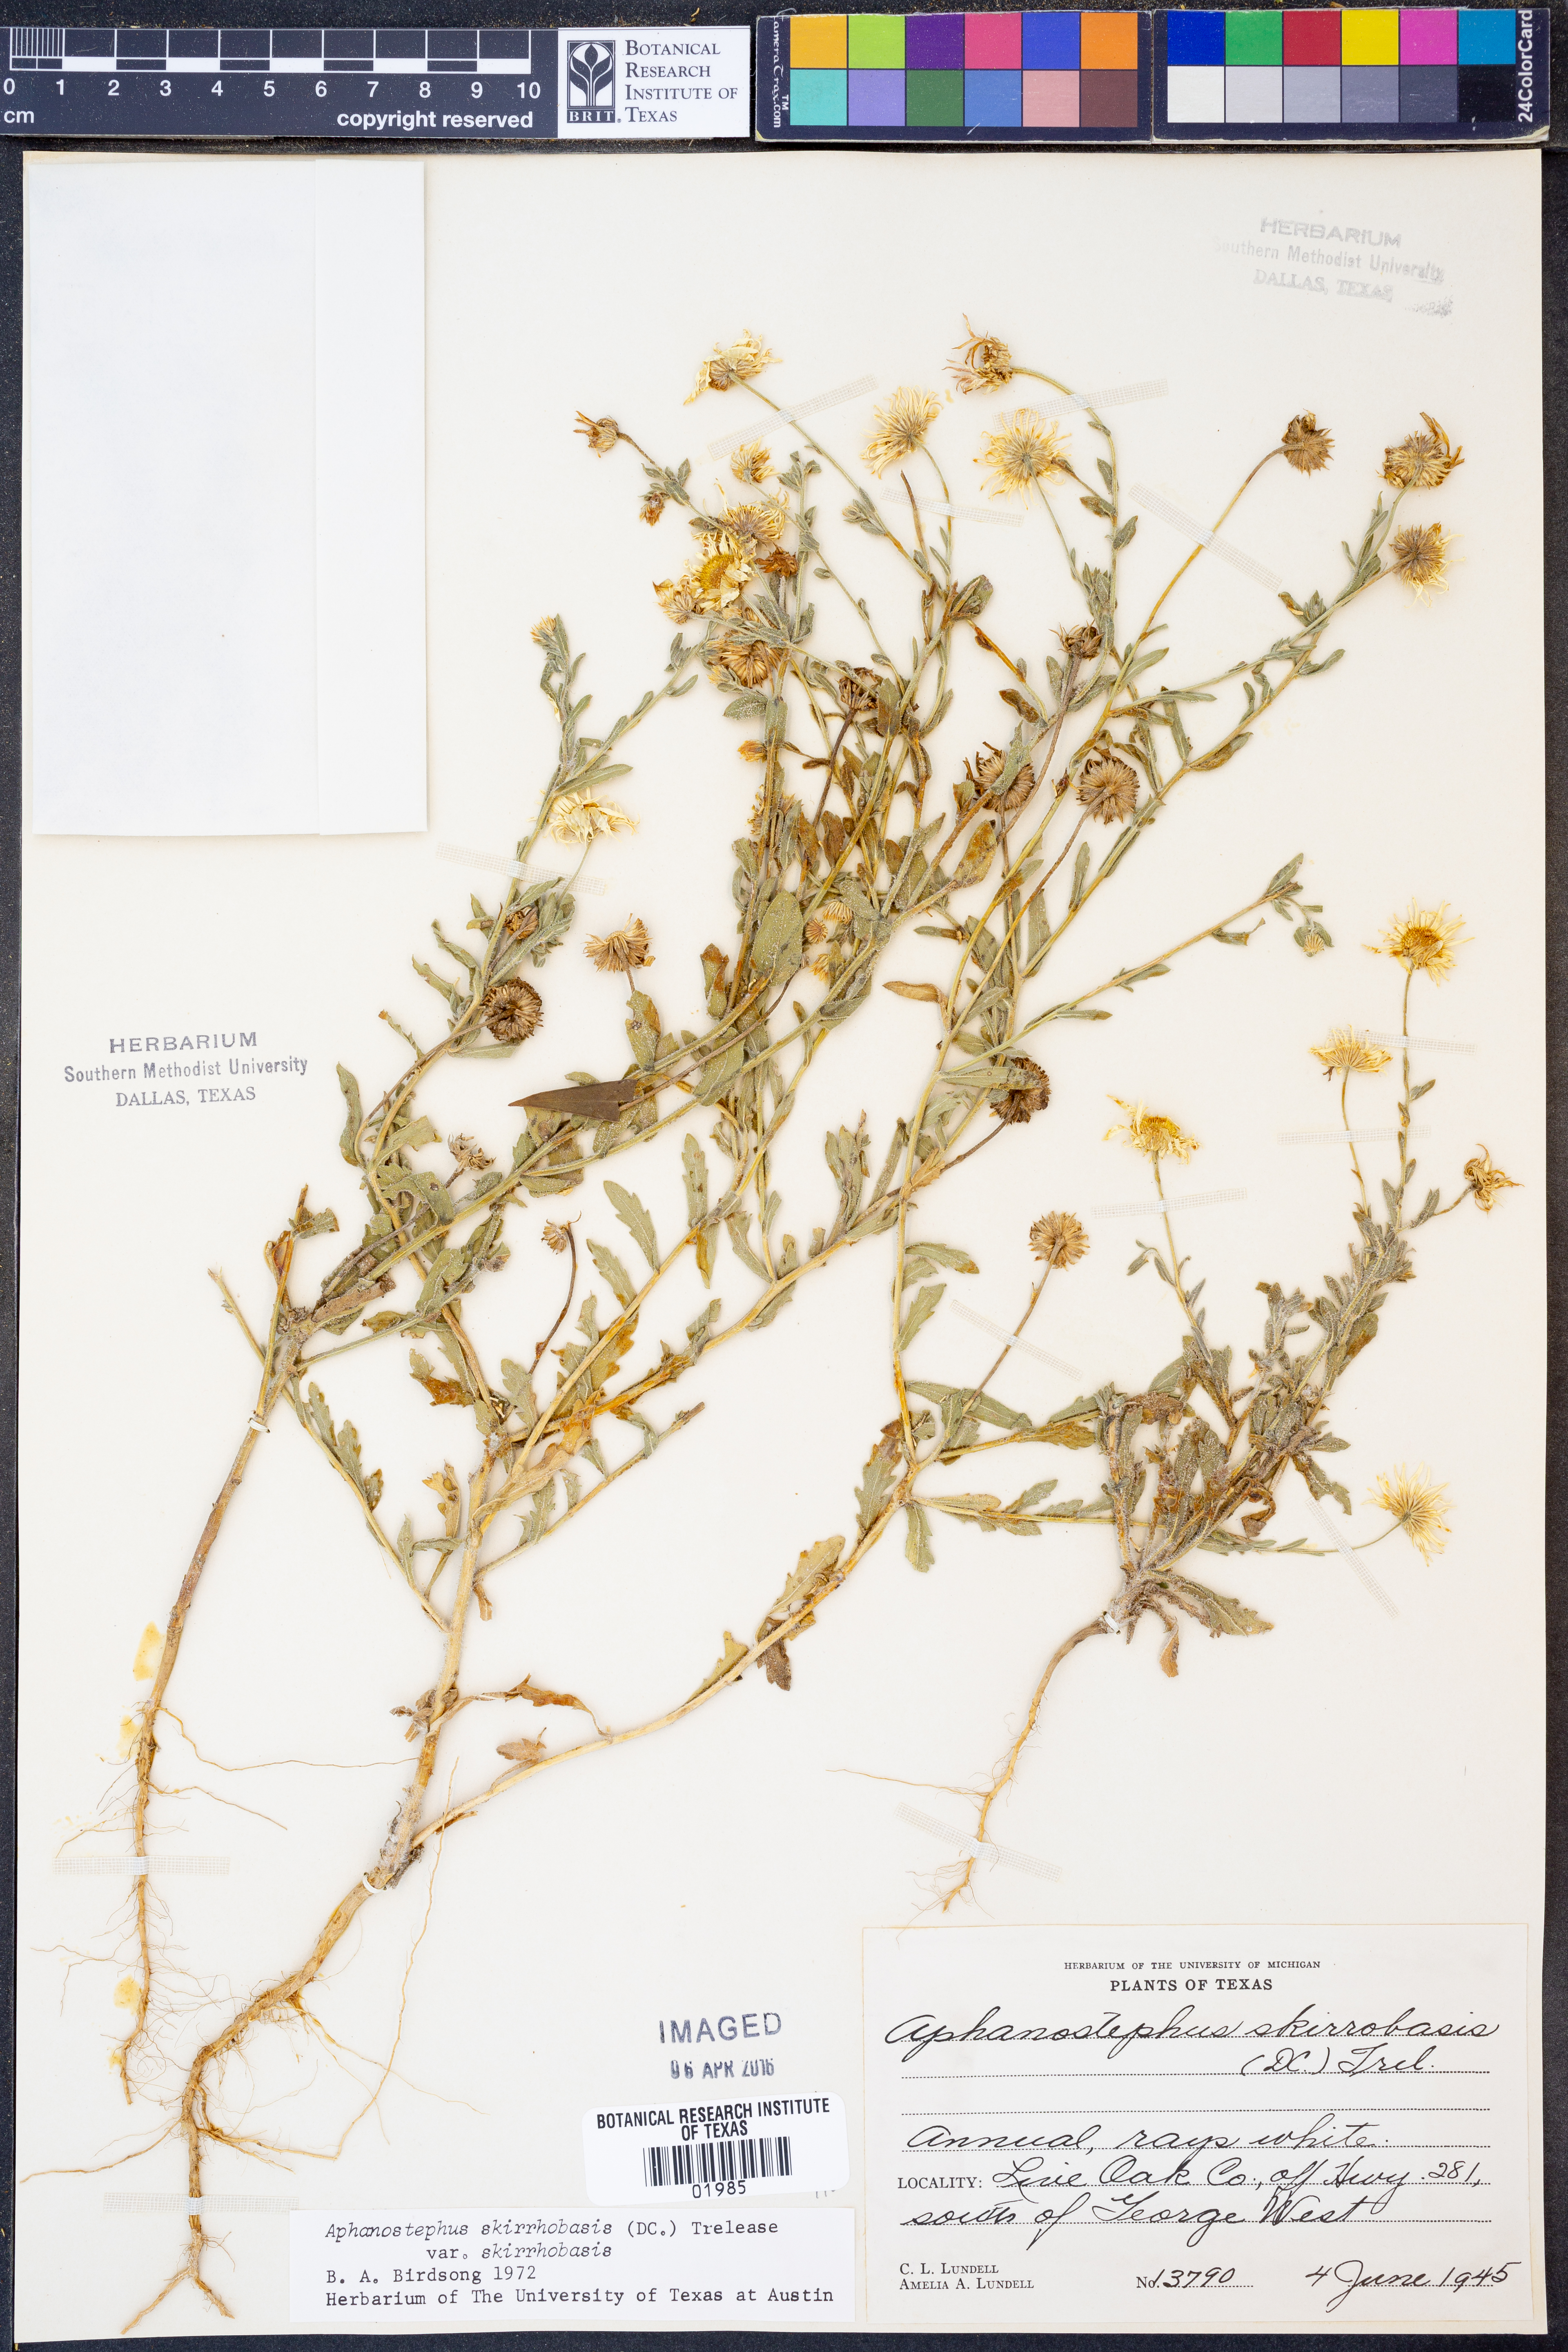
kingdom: Plantae
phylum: Tracheophyta
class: Magnoliopsida
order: Asterales
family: Asteraceae
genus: Aphanostephus
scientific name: Aphanostephus skirrhobasis
